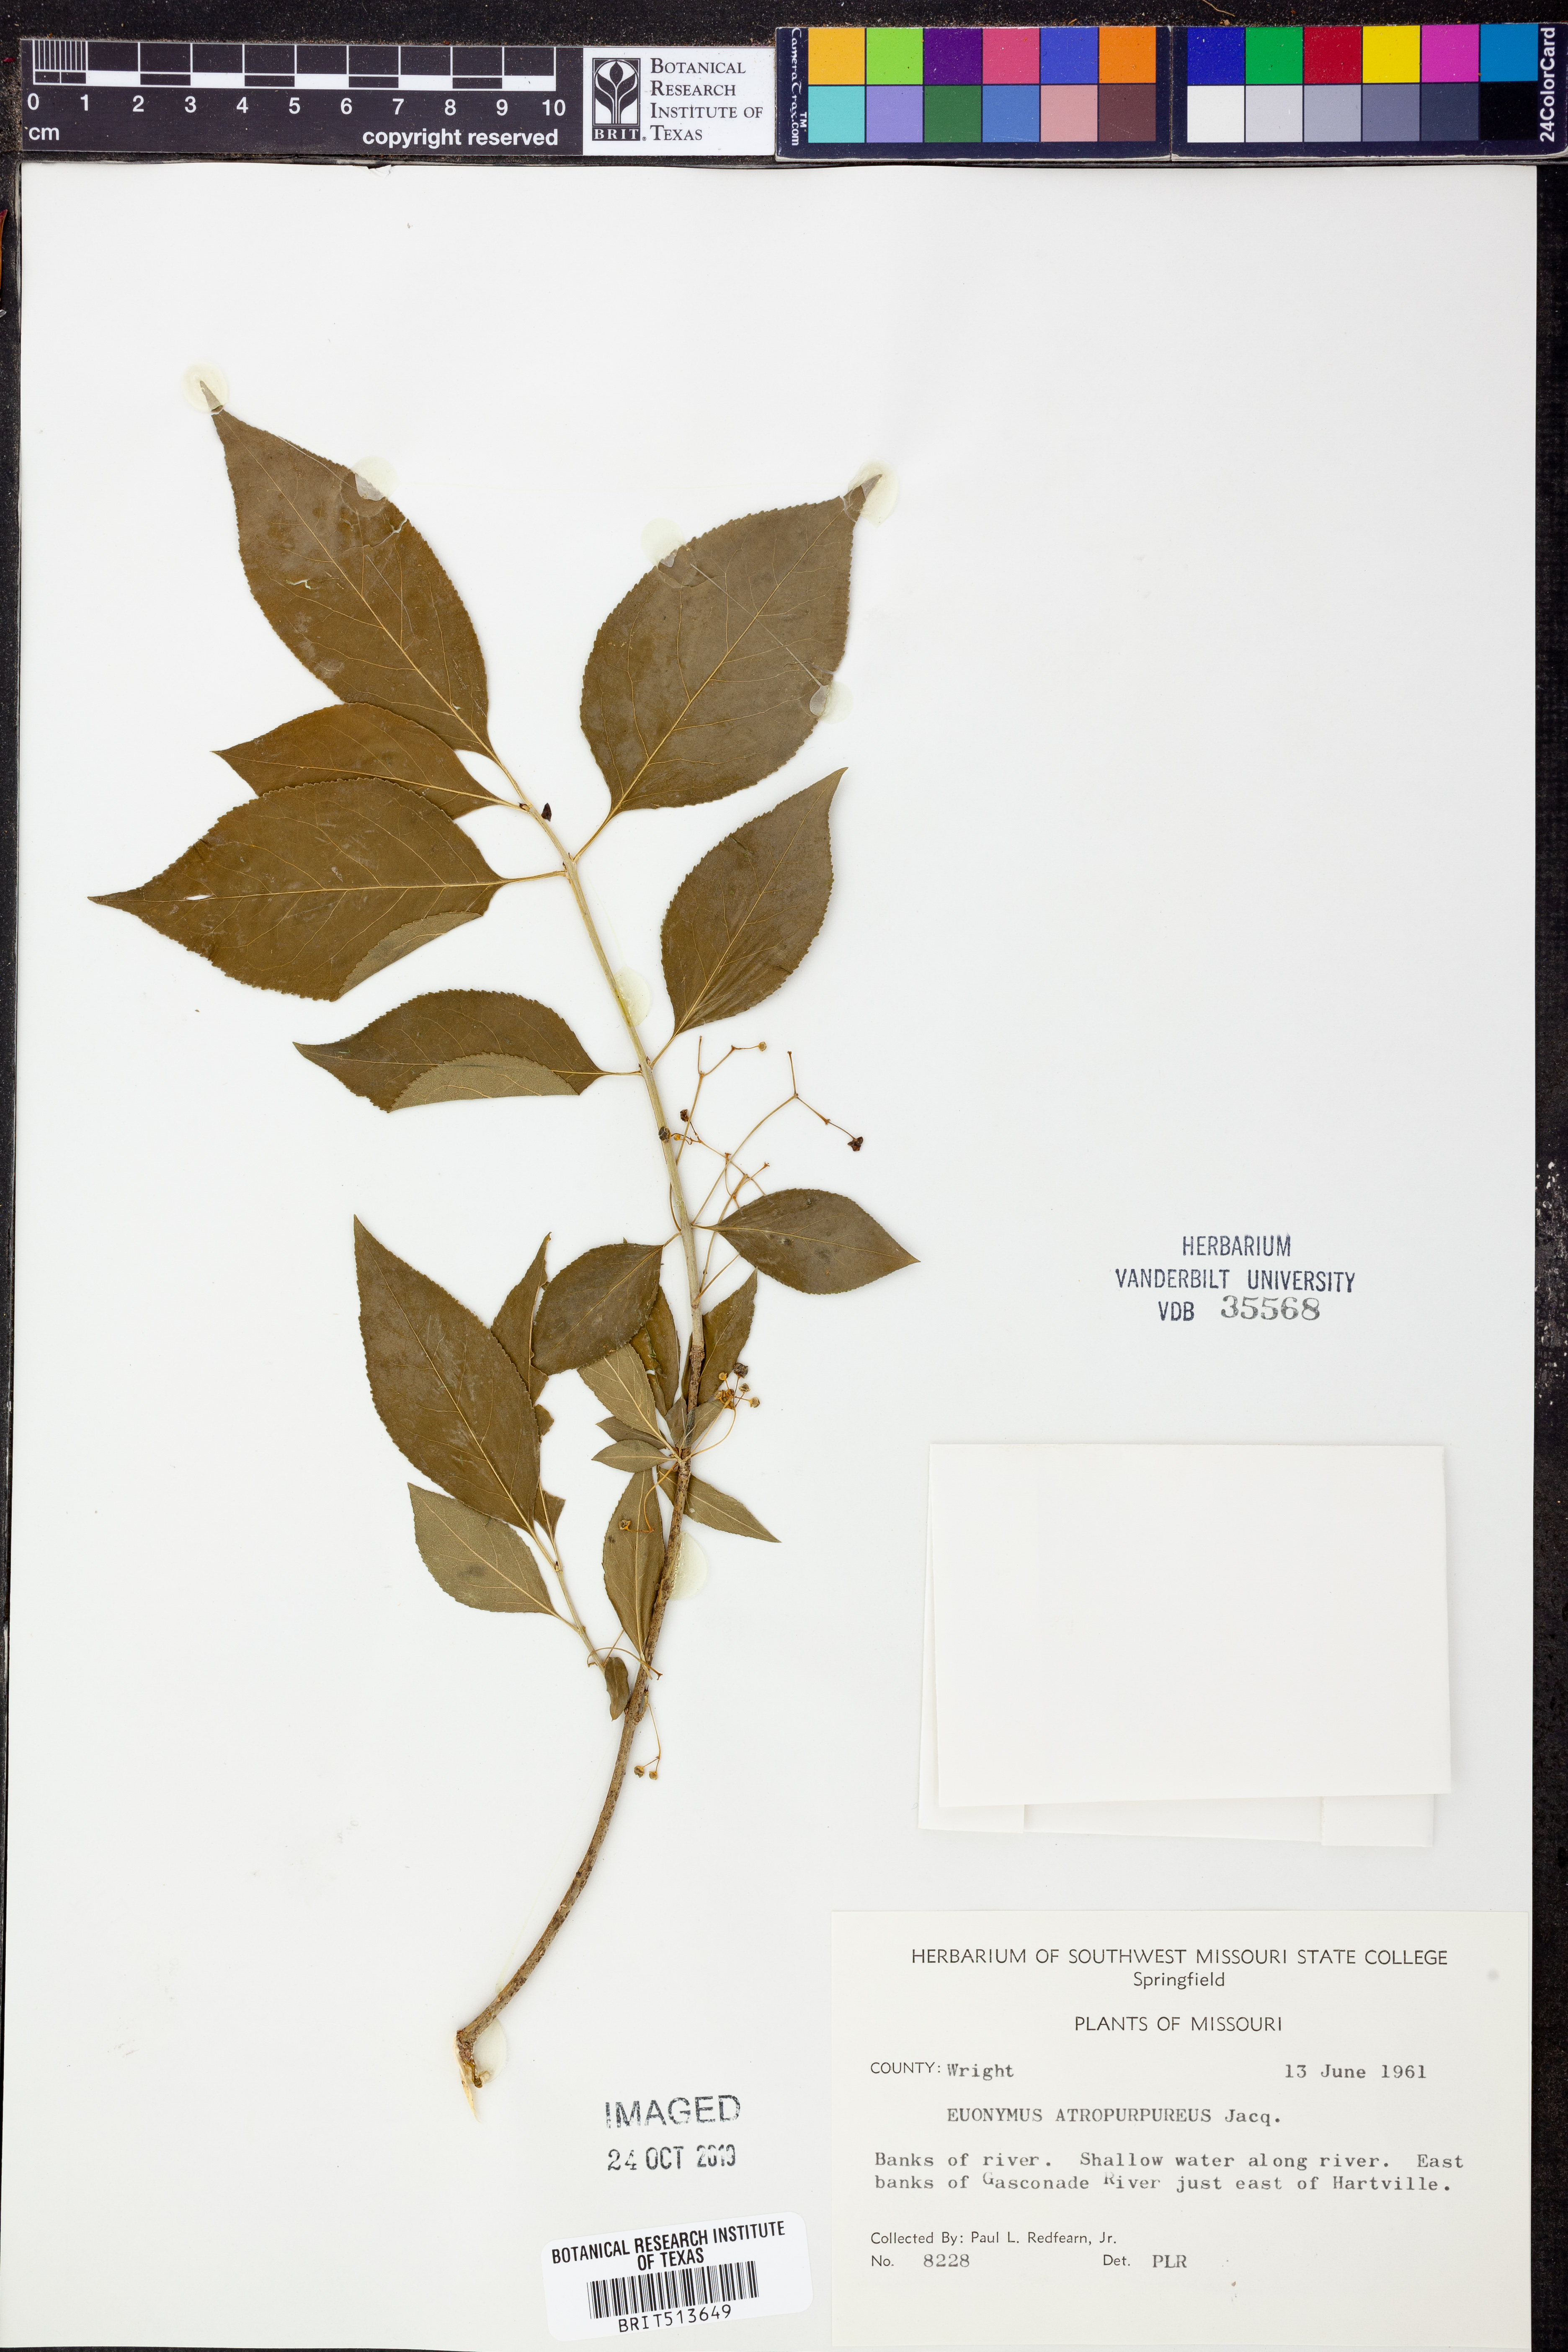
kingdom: Plantae
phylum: Tracheophyta
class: Magnoliopsida
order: Celastrales
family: Celastraceae
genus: Euonymus
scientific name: Euonymus atropurpureus
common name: Eastern wahoo
